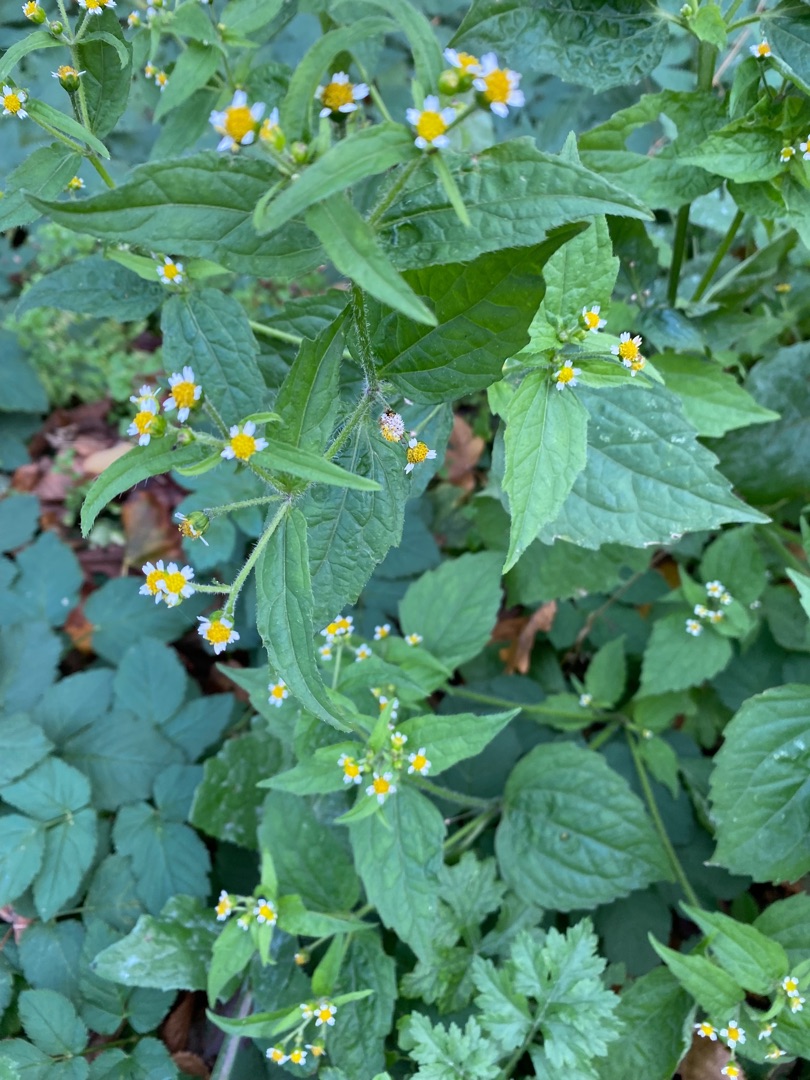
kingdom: Plantae
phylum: Tracheophyta
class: Magnoliopsida
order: Asterales
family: Asteraceae
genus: Galinsoga
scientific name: Galinsoga quadriradiata
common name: Kirtel-kortstråle
